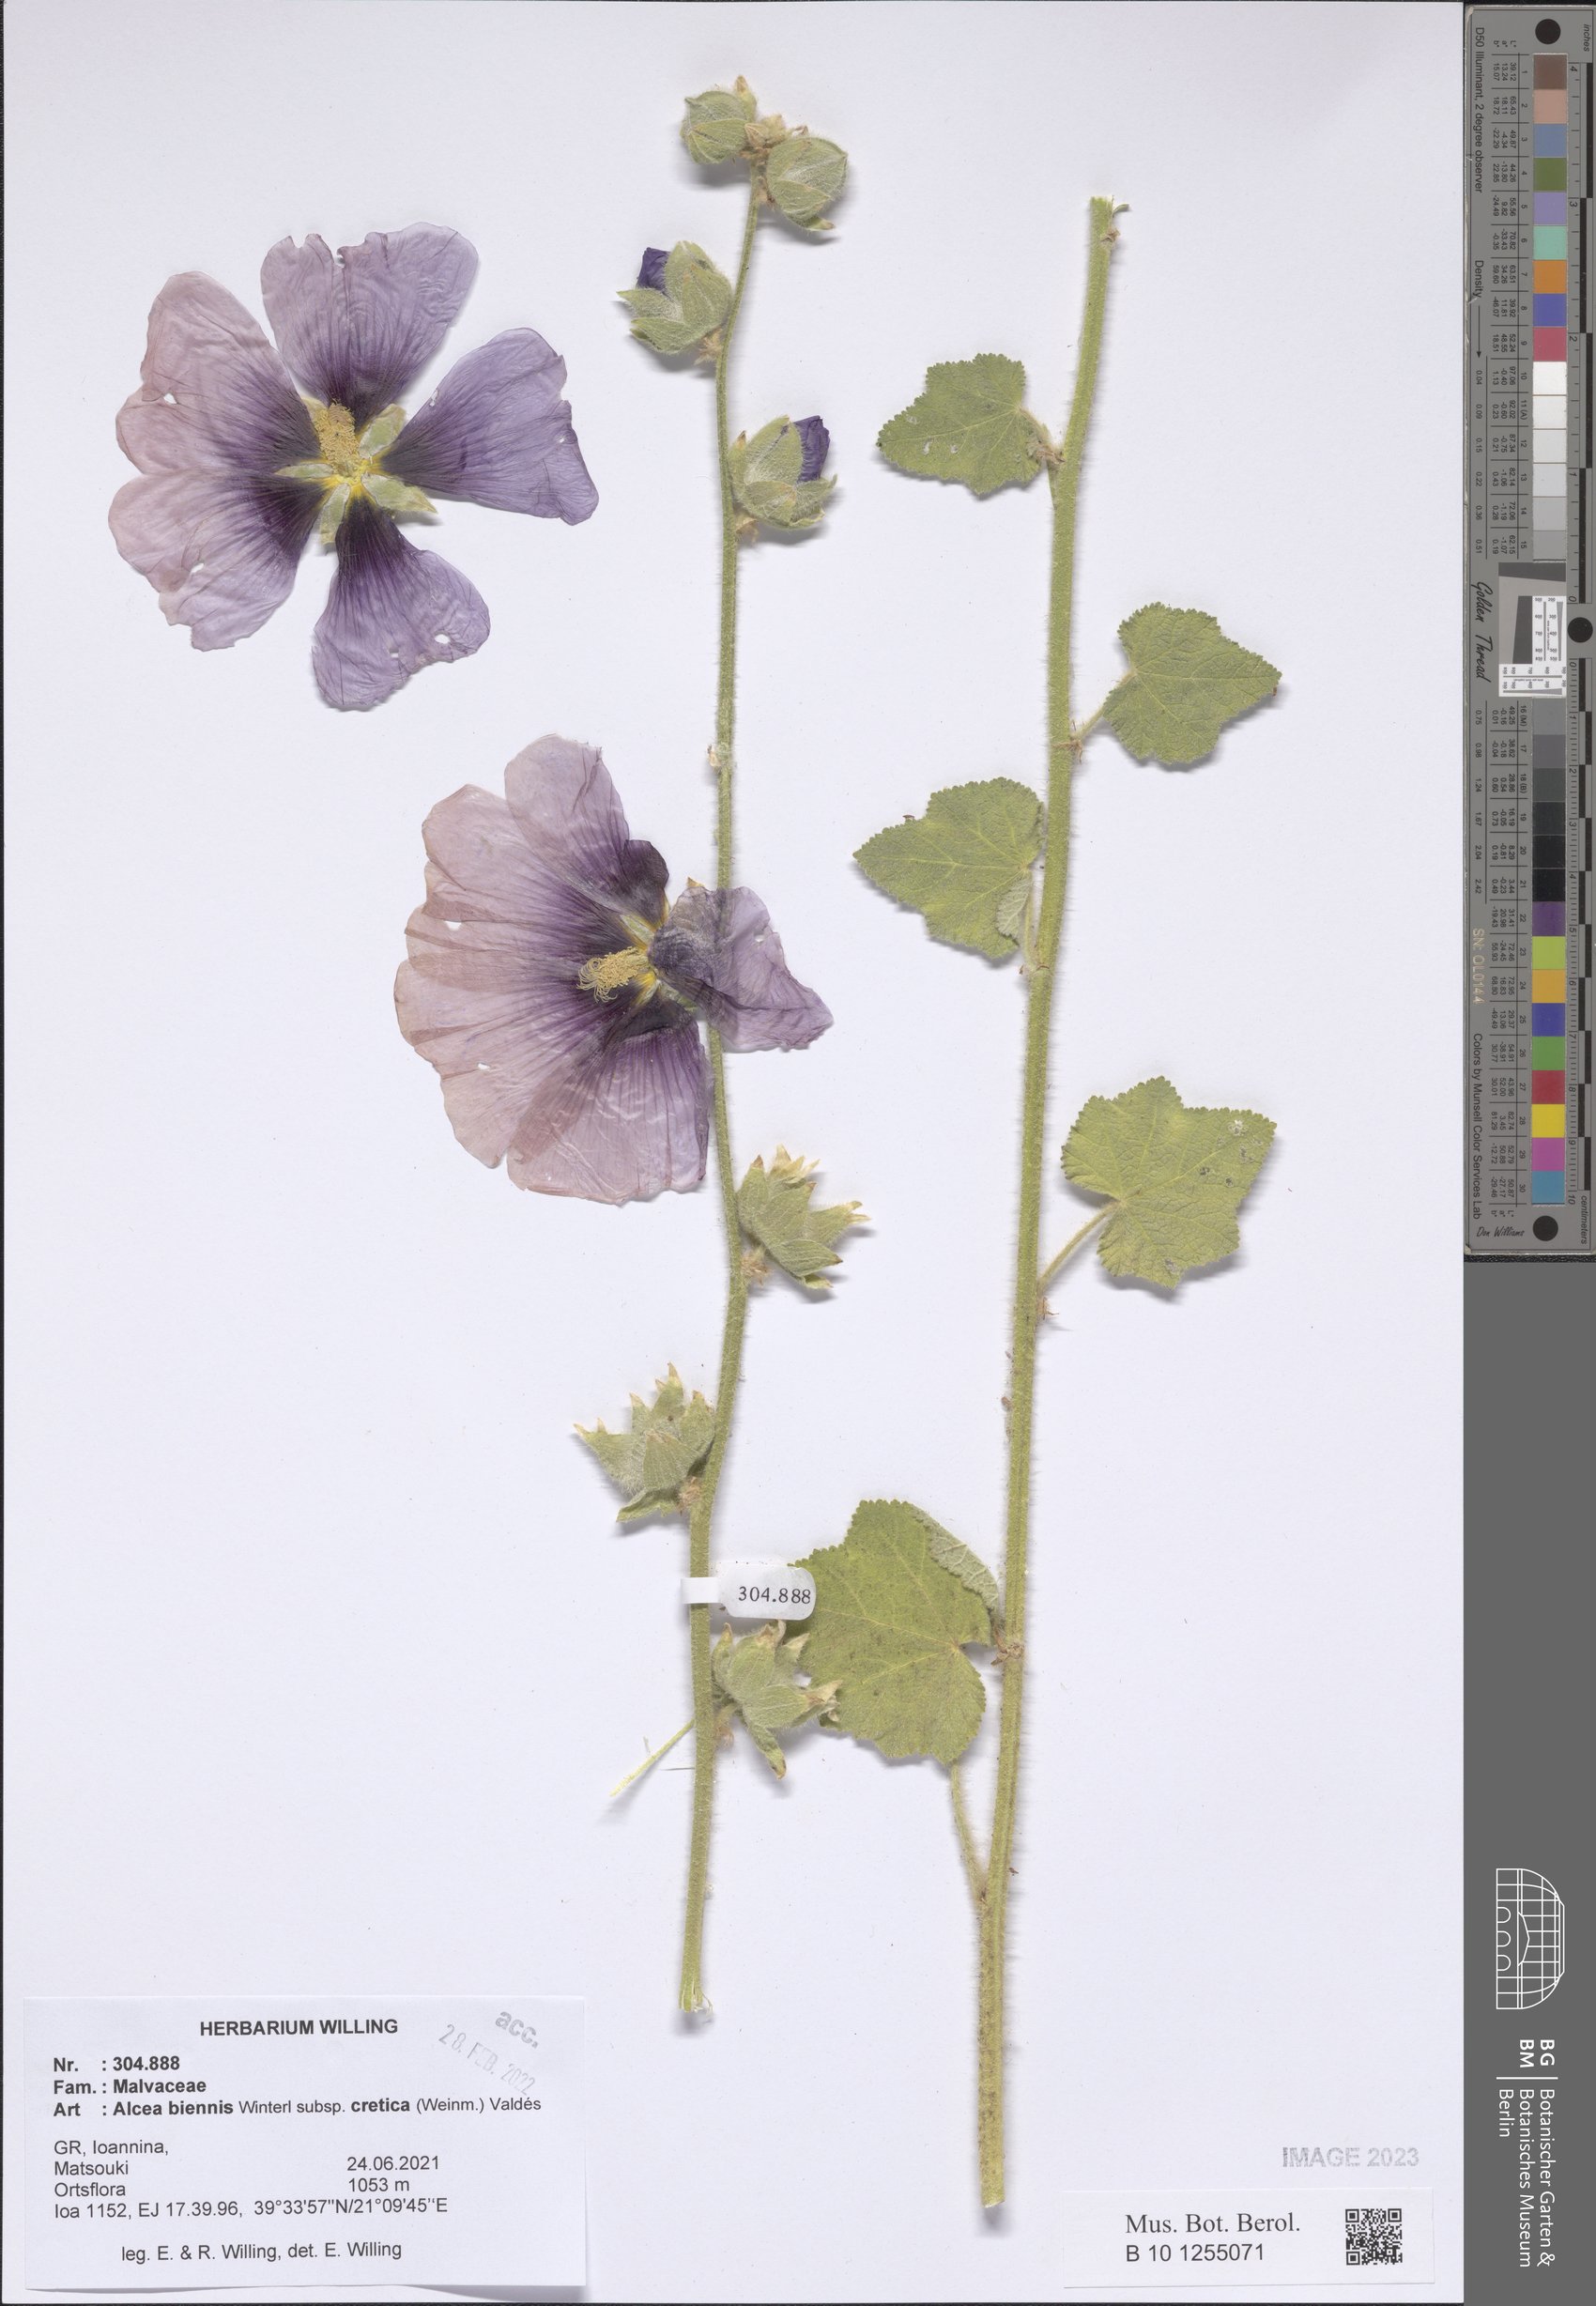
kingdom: Plantae
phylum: Tracheophyta
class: Magnoliopsida
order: Malvales
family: Malvaceae
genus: Alcea
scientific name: Alcea biennis
